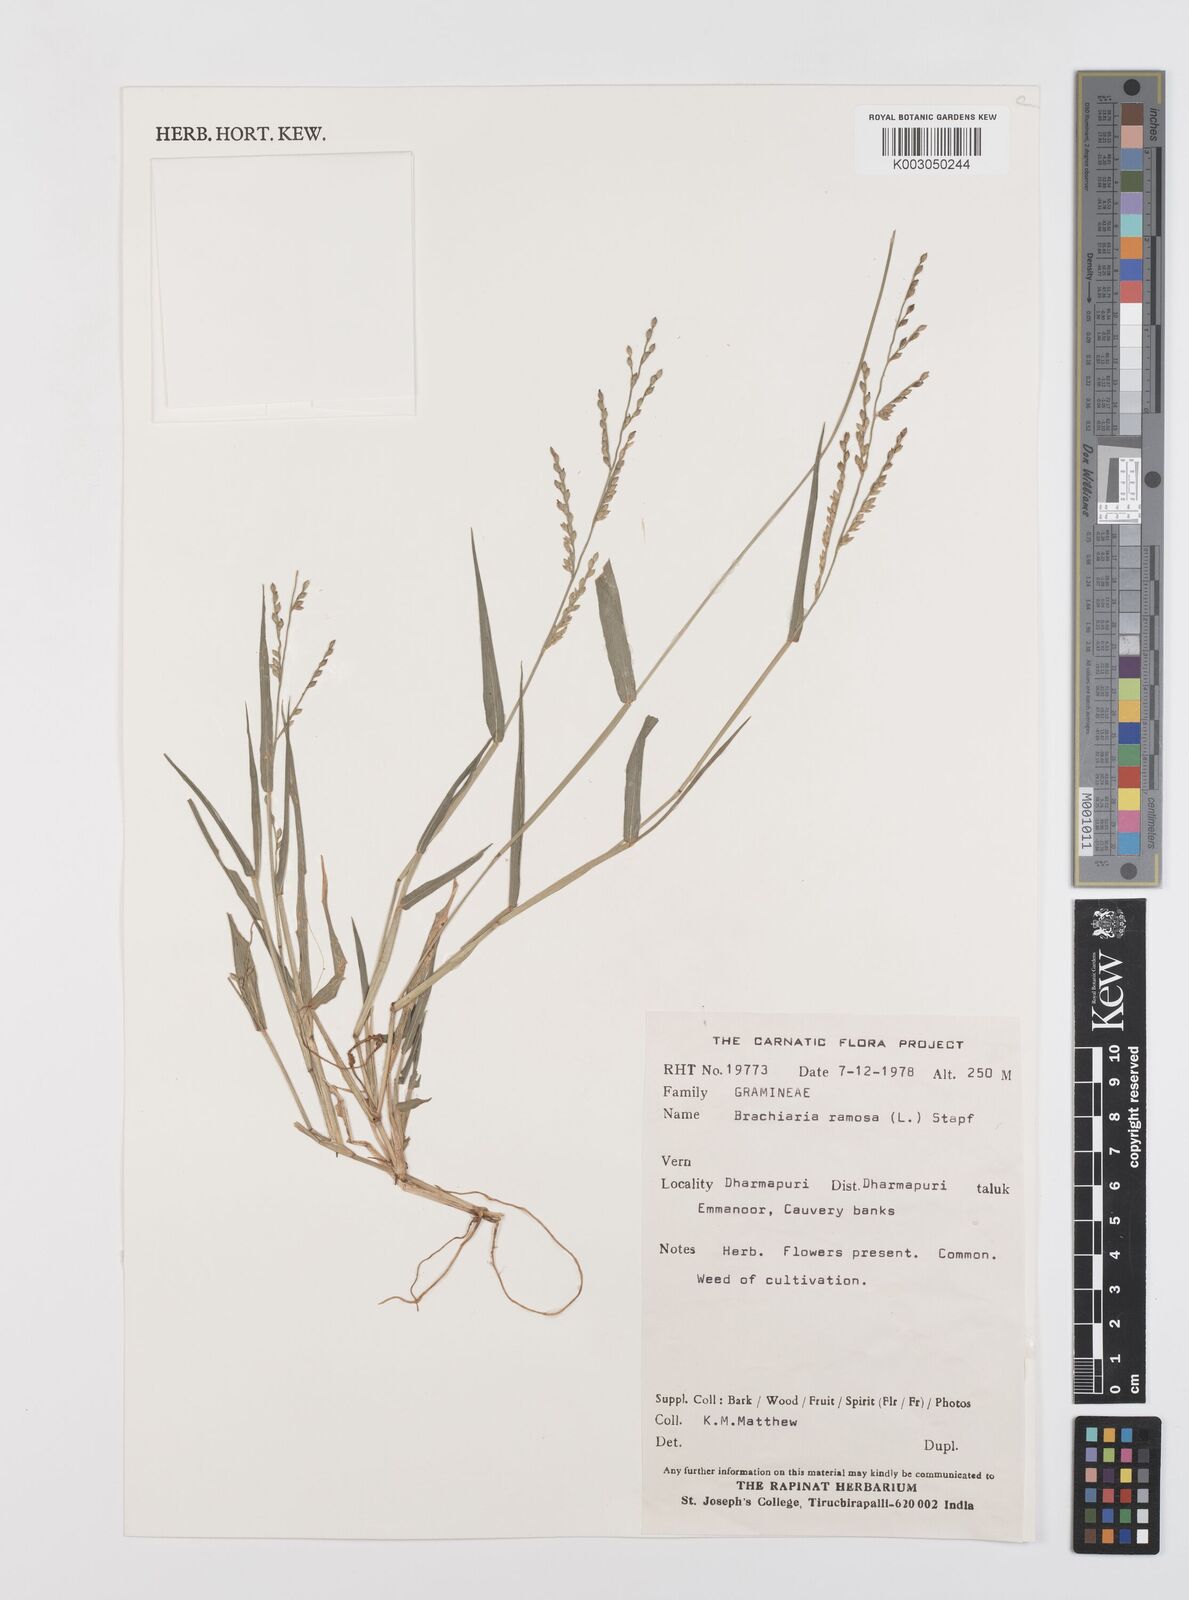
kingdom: Plantae
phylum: Tracheophyta
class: Liliopsida
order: Poales
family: Poaceae
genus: Urochloa
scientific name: Urochloa ramosa
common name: Browntop millet
